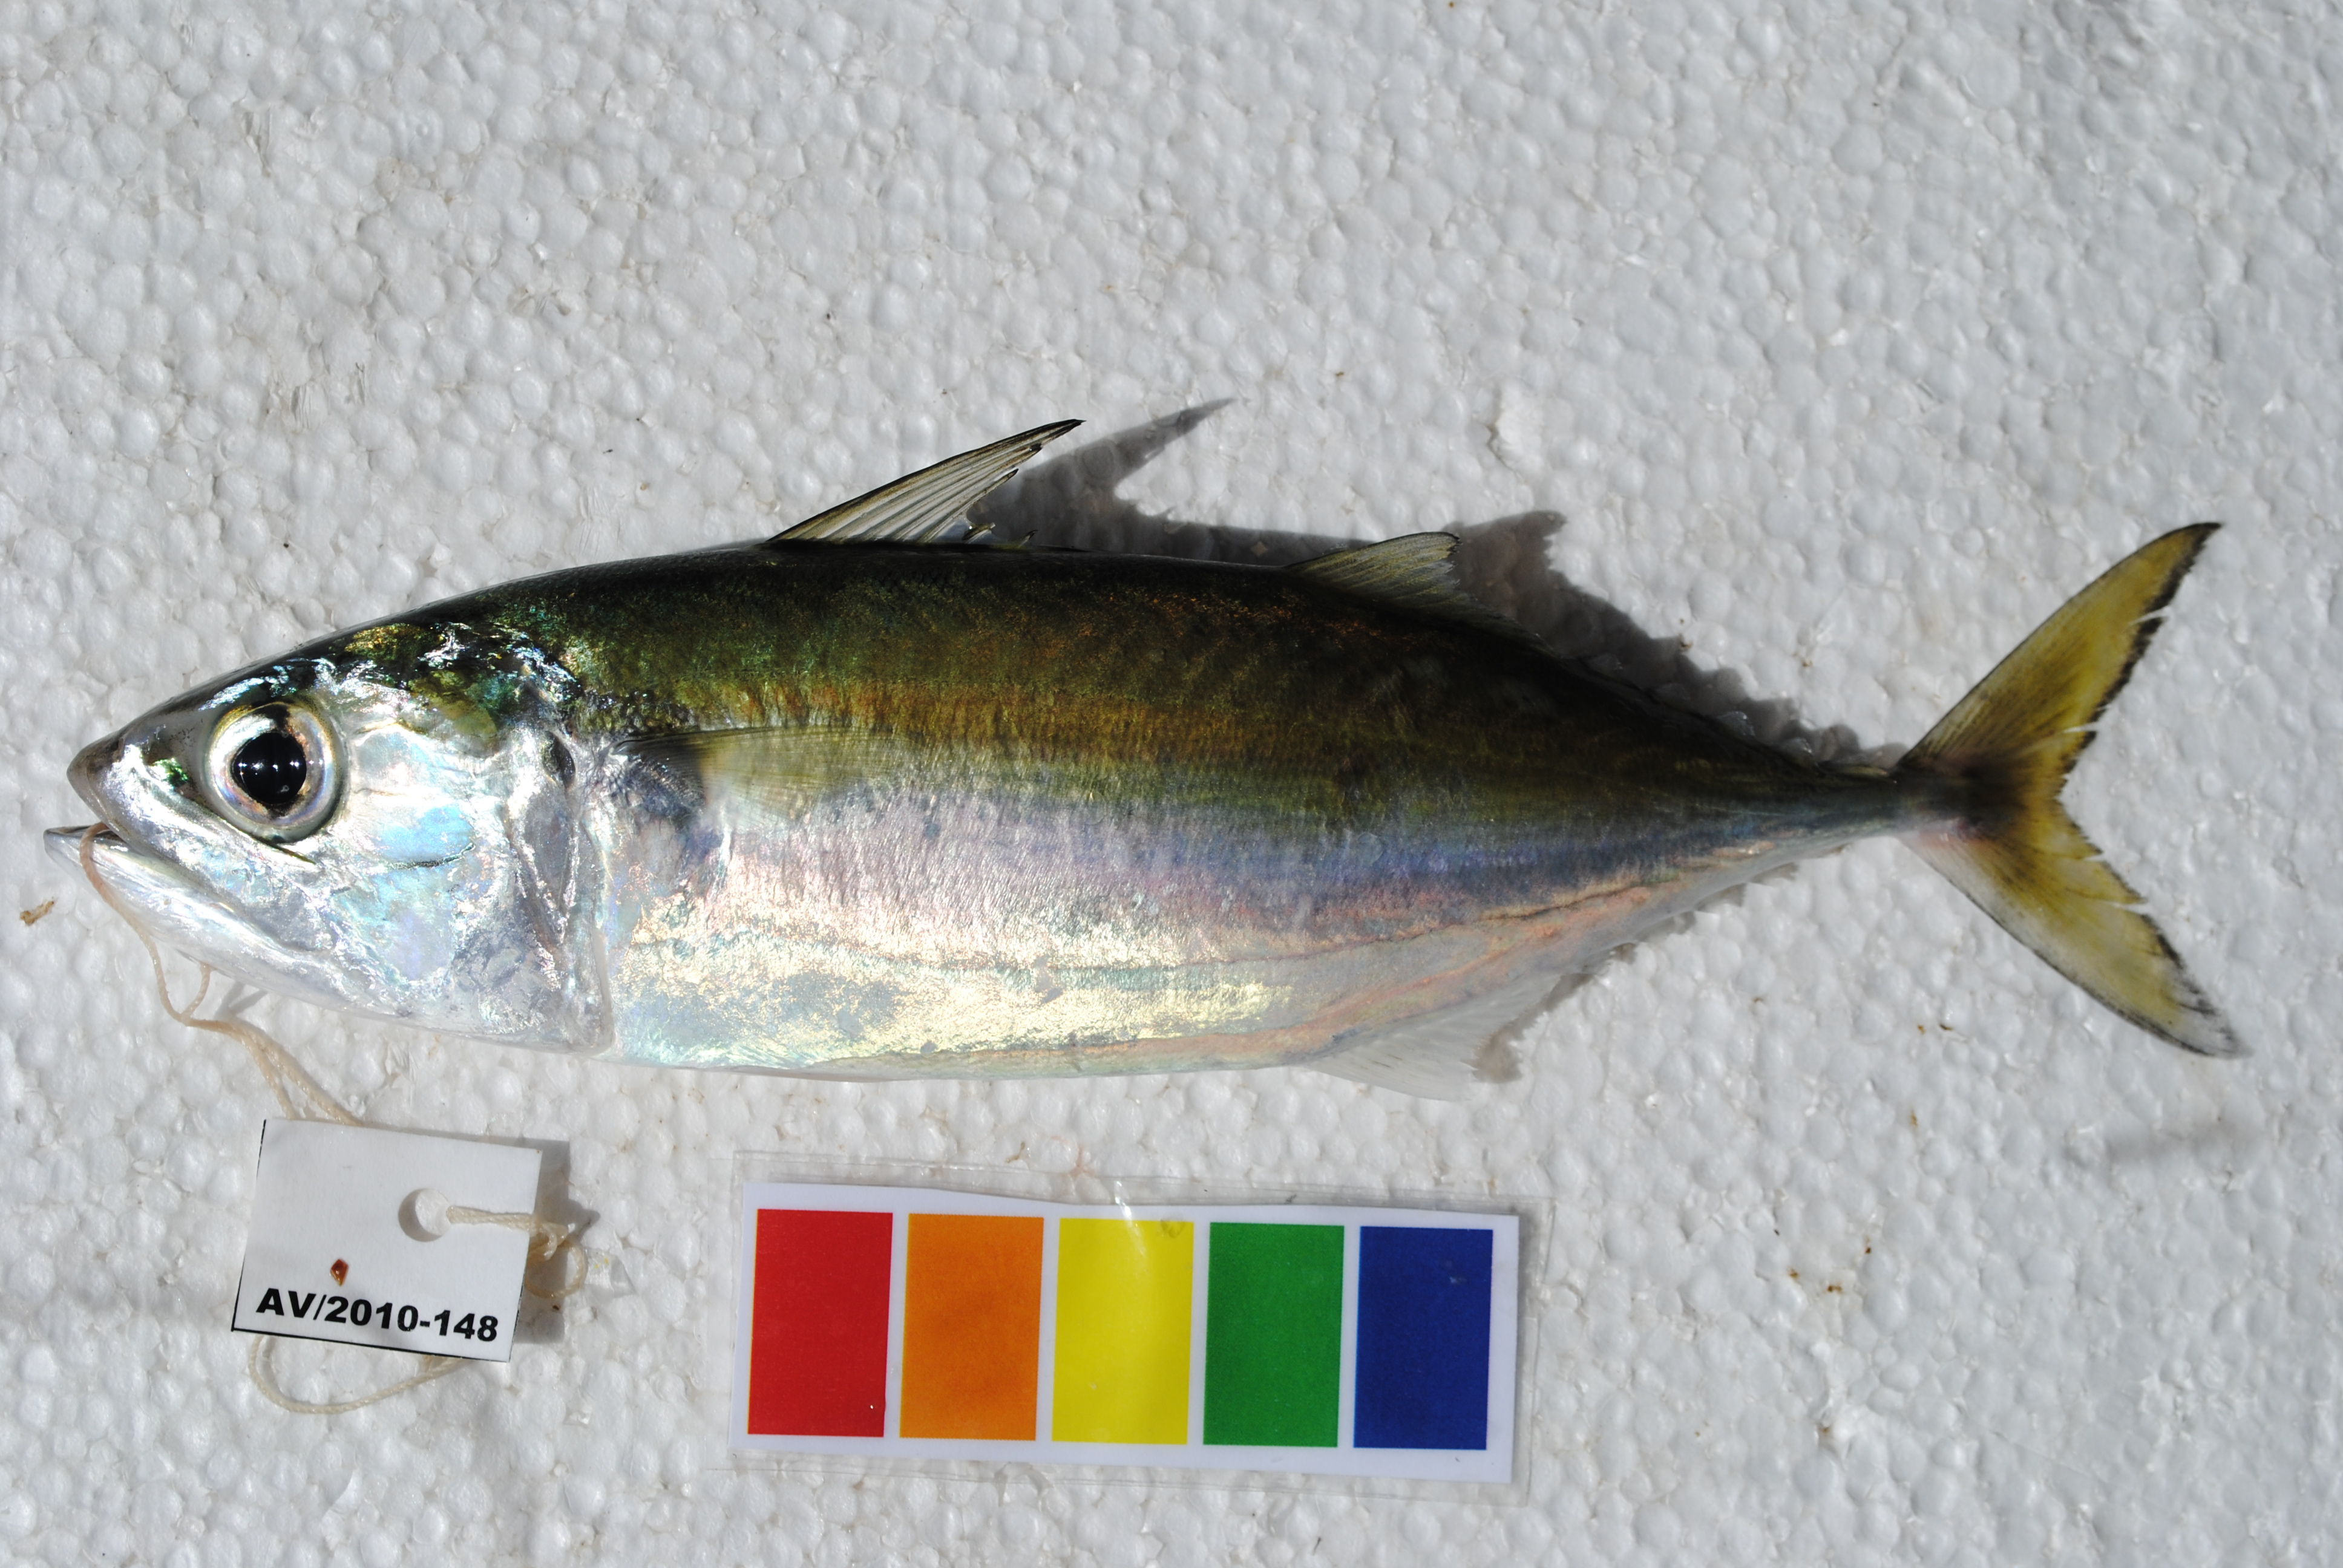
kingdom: Animalia
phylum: Chordata
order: Perciformes
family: Scombridae
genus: Rastrelliger
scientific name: Rastrelliger kanagurta
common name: Indian mackerel
